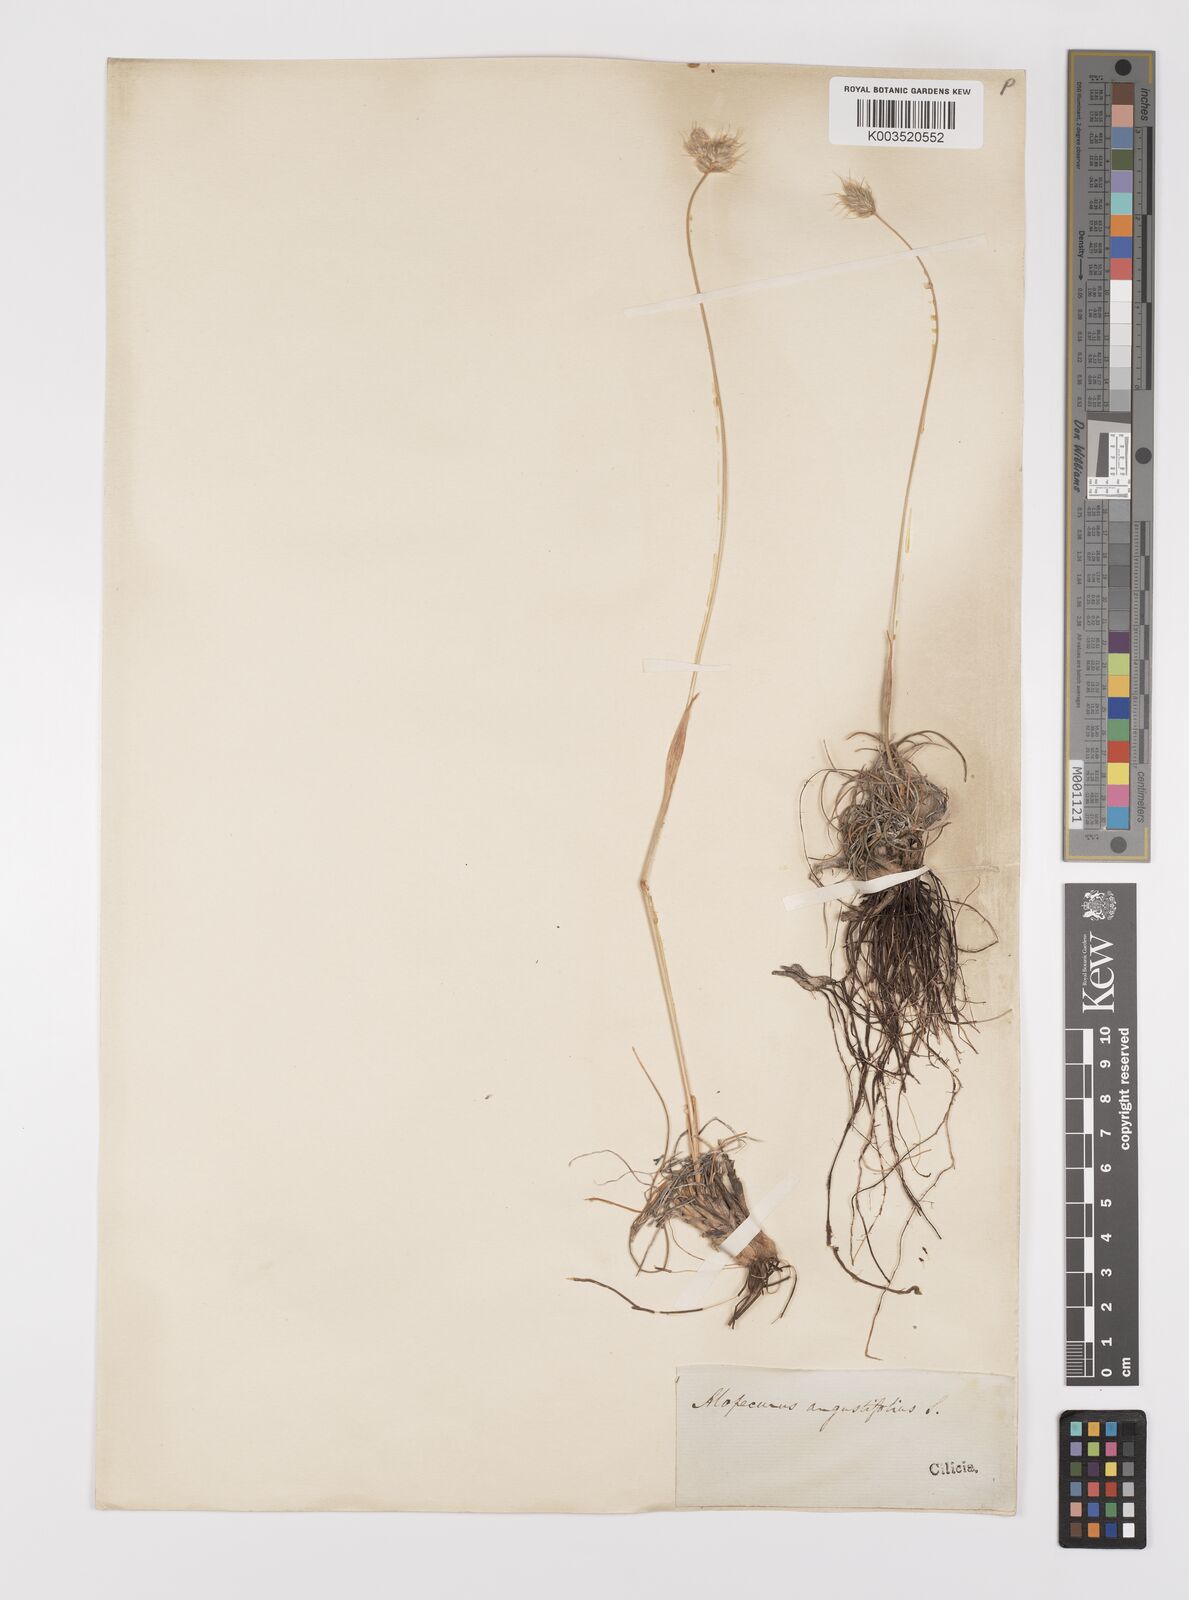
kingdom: Plantae
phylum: Tracheophyta
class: Liliopsida
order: Poales
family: Poaceae
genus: Alopecurus
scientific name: Alopecurus textilis
